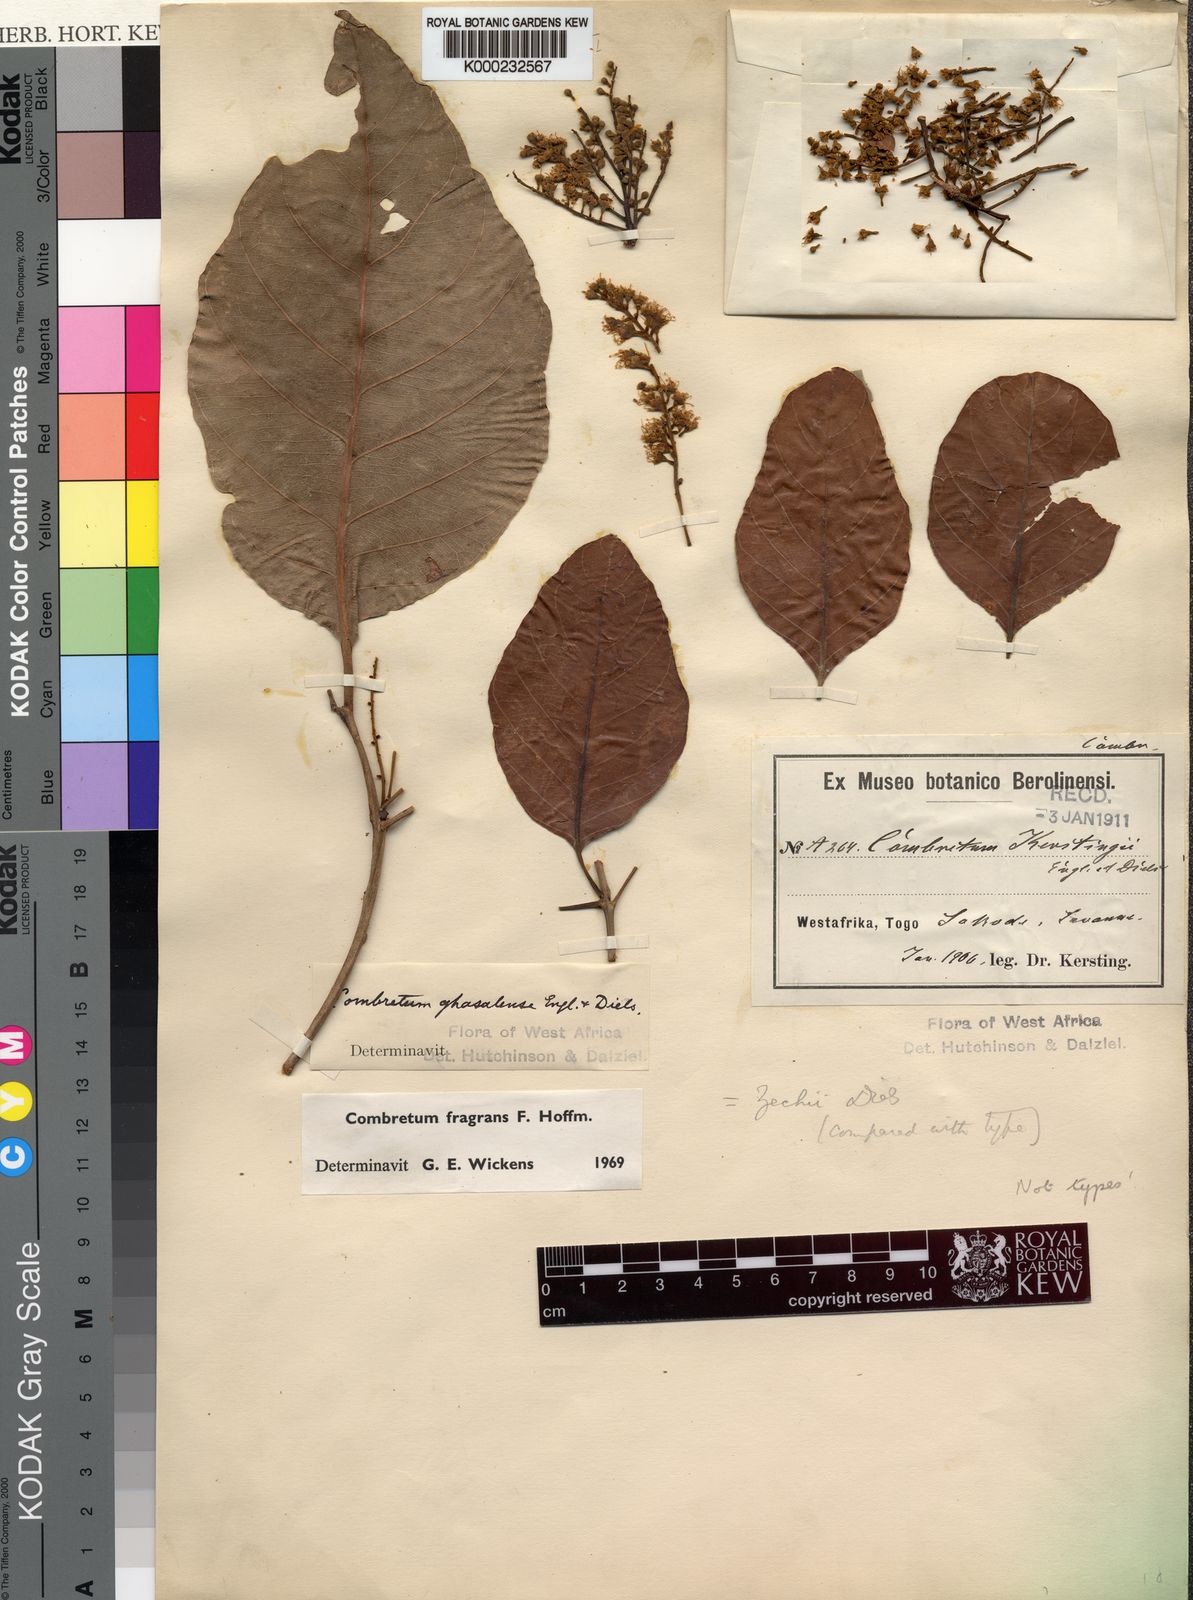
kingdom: Plantae
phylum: Tracheophyta
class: Magnoliopsida
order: Myrtales
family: Combretaceae
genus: Combretum
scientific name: Combretum adenogonium
